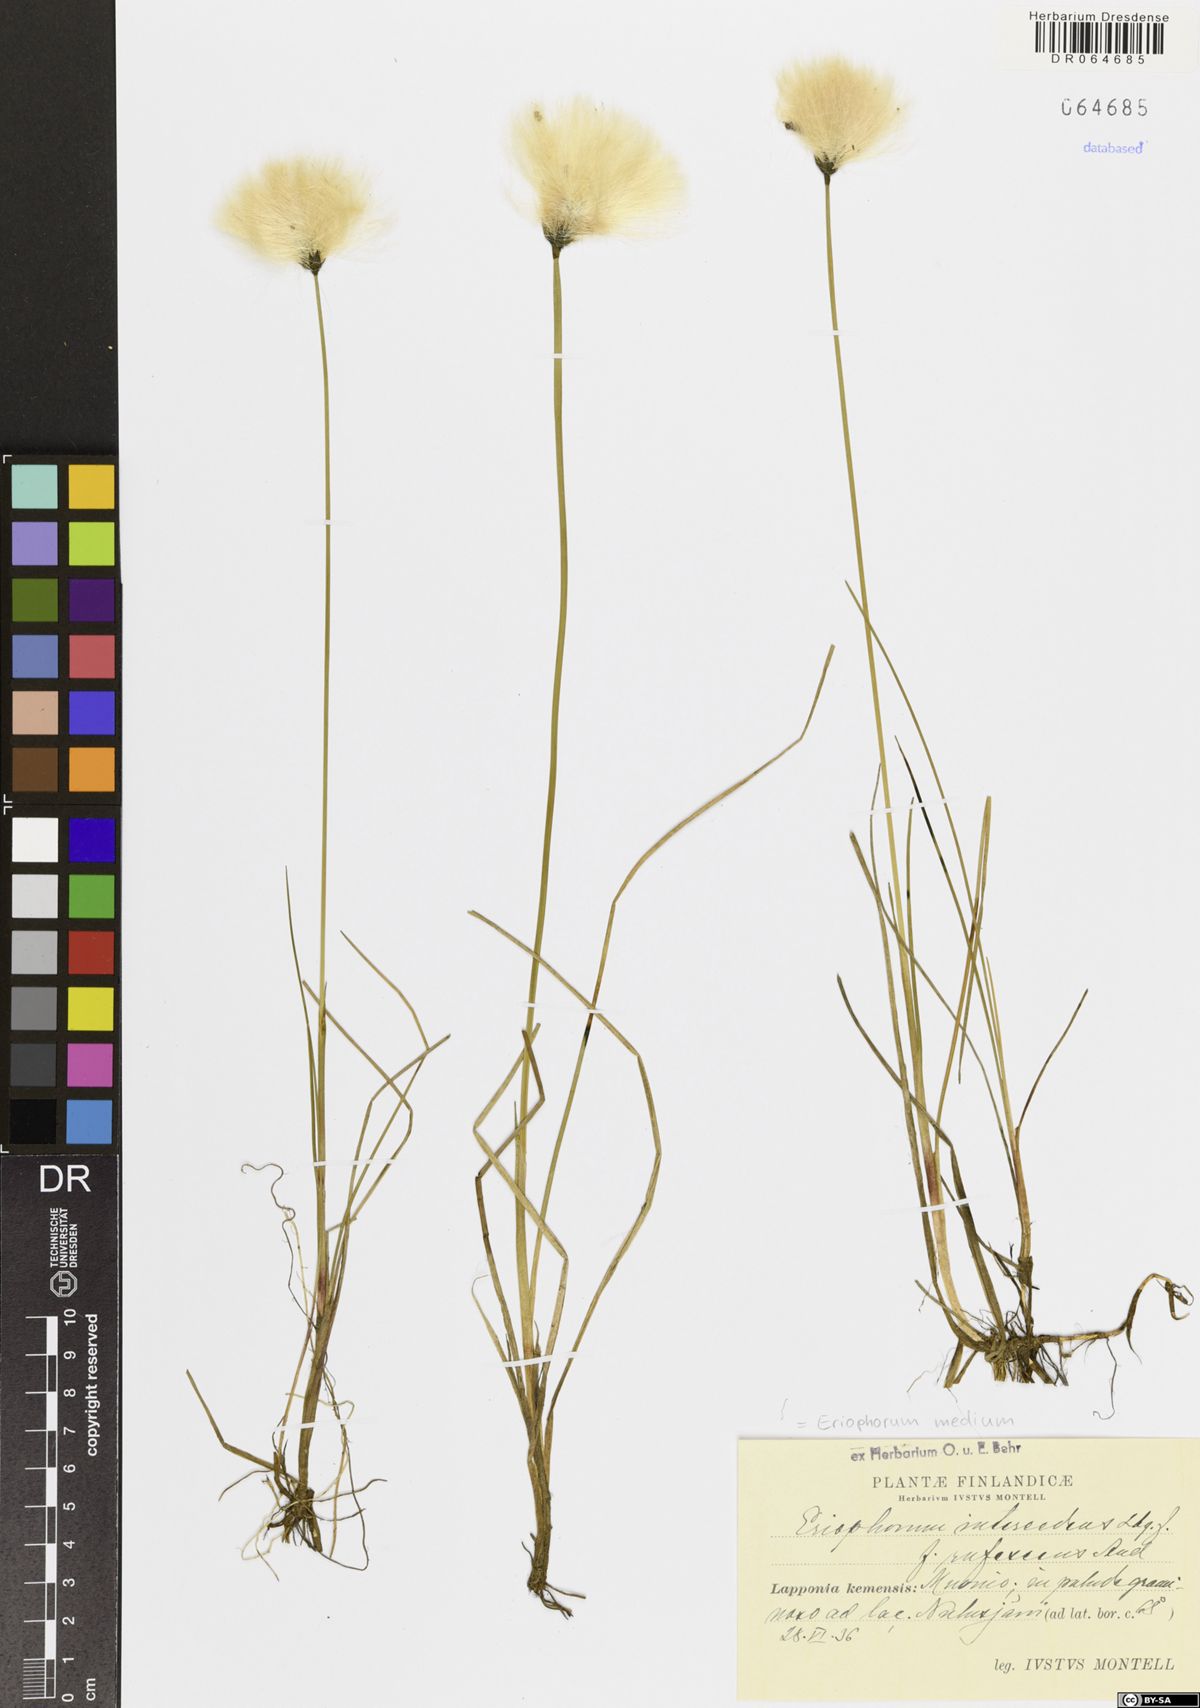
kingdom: Plantae
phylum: Tracheophyta
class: Liliopsida
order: Poales
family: Cyperaceae
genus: Eriophorum
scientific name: Eriophorum medium
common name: Intermediate cottongrass
